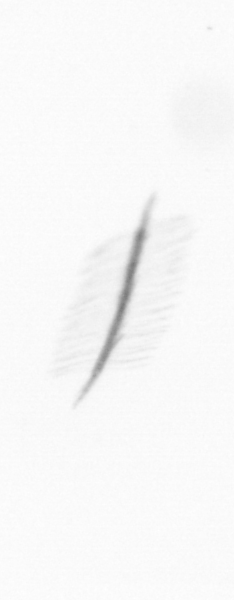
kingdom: Chromista
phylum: Ochrophyta
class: Bacillariophyceae
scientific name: Bacillariophyceae
